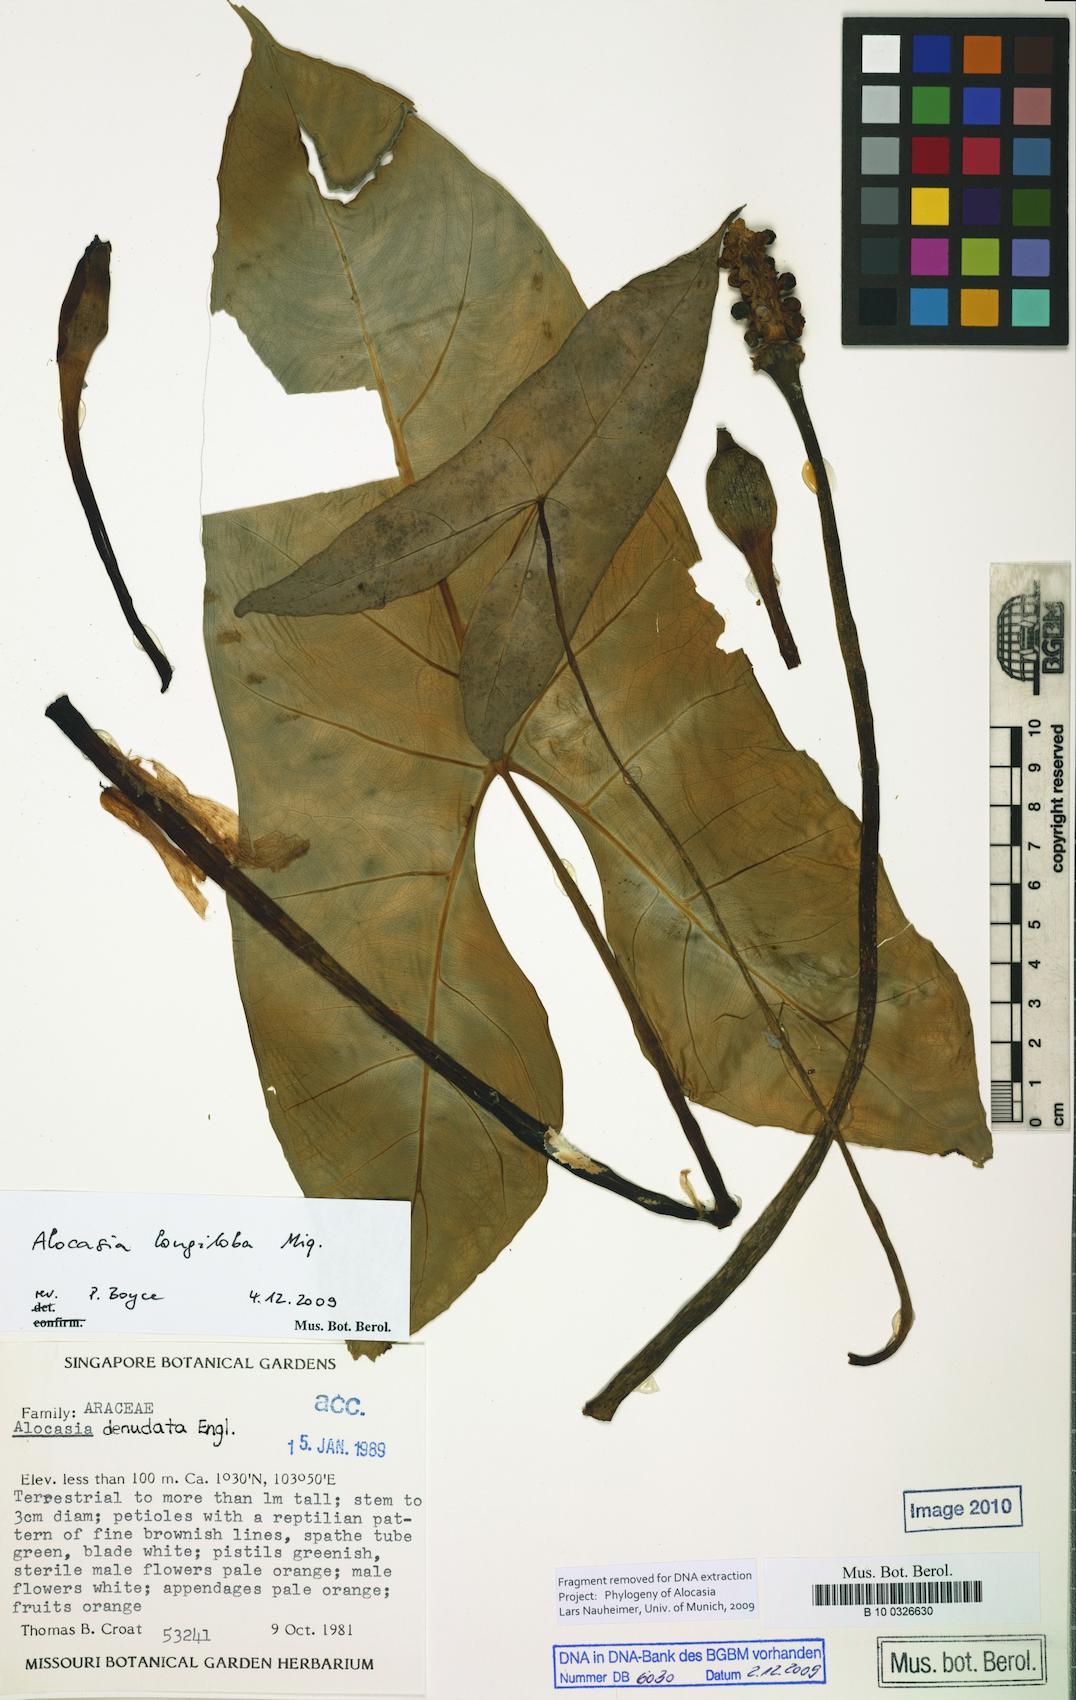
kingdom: Plantae
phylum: Tracheophyta
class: Liliopsida
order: Alismatales
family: Araceae
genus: Alocasia
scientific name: Alocasia longiloba
